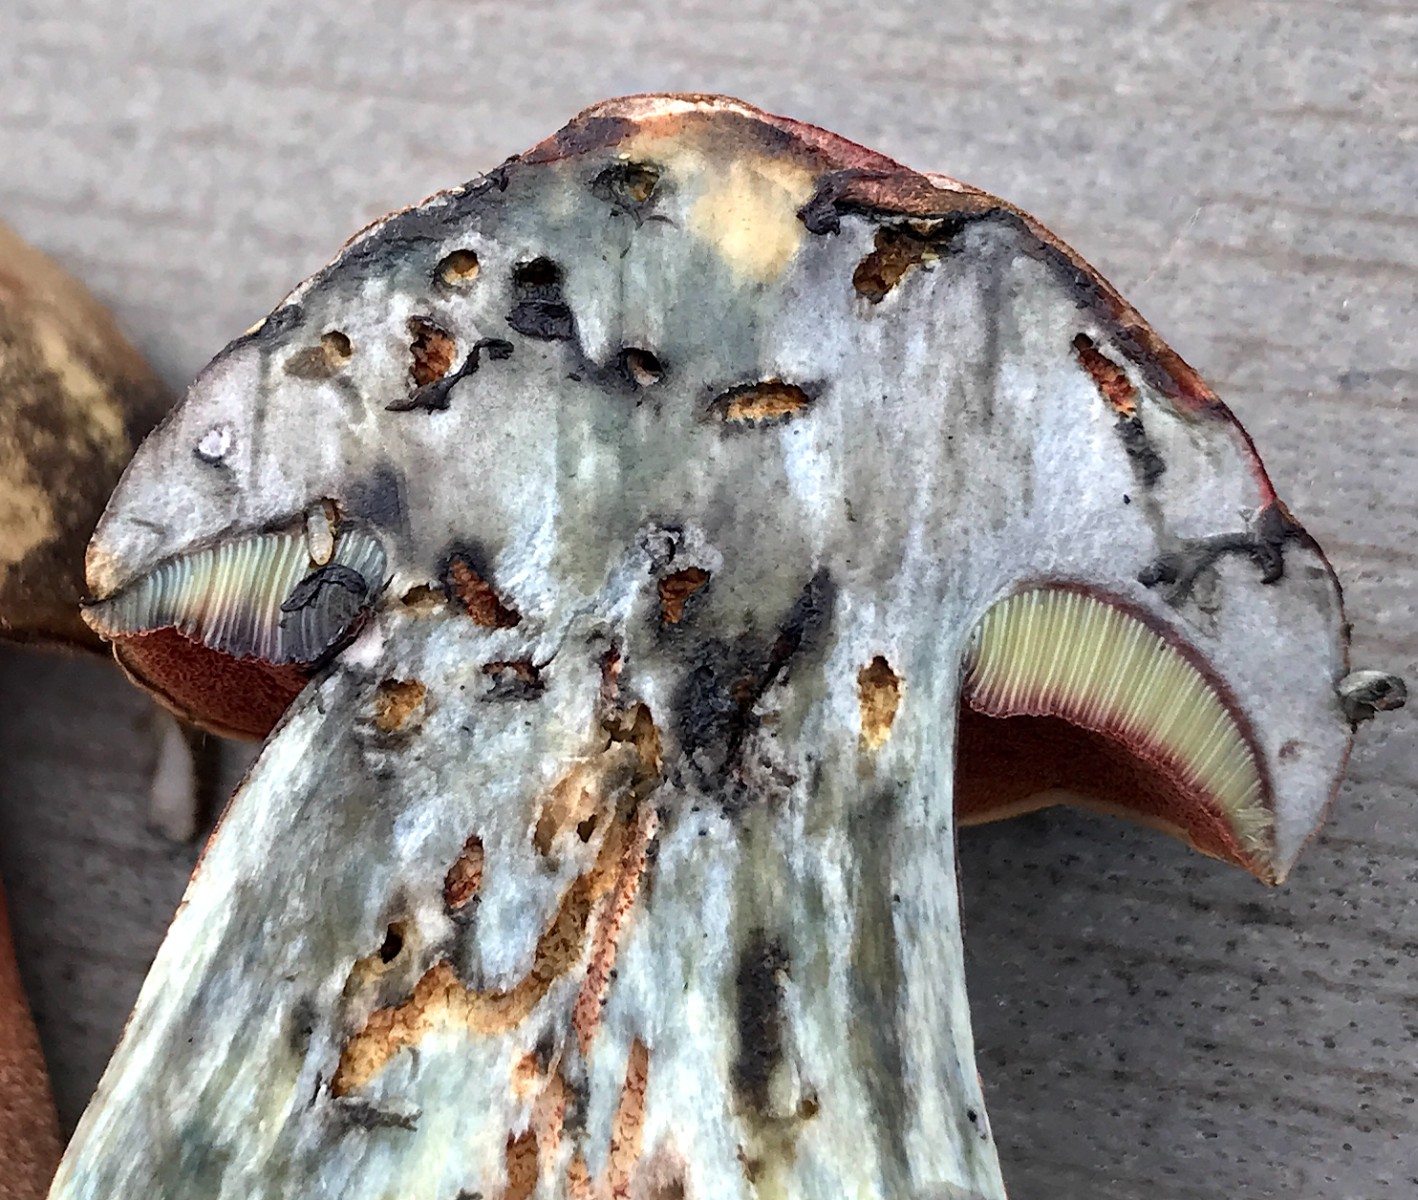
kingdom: Fungi
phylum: Basidiomycota
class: Agaricomycetes
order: Boletales
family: Boletaceae
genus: Neoboletus
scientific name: Neoboletus erythropus
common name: punktstokket indigorørhat
